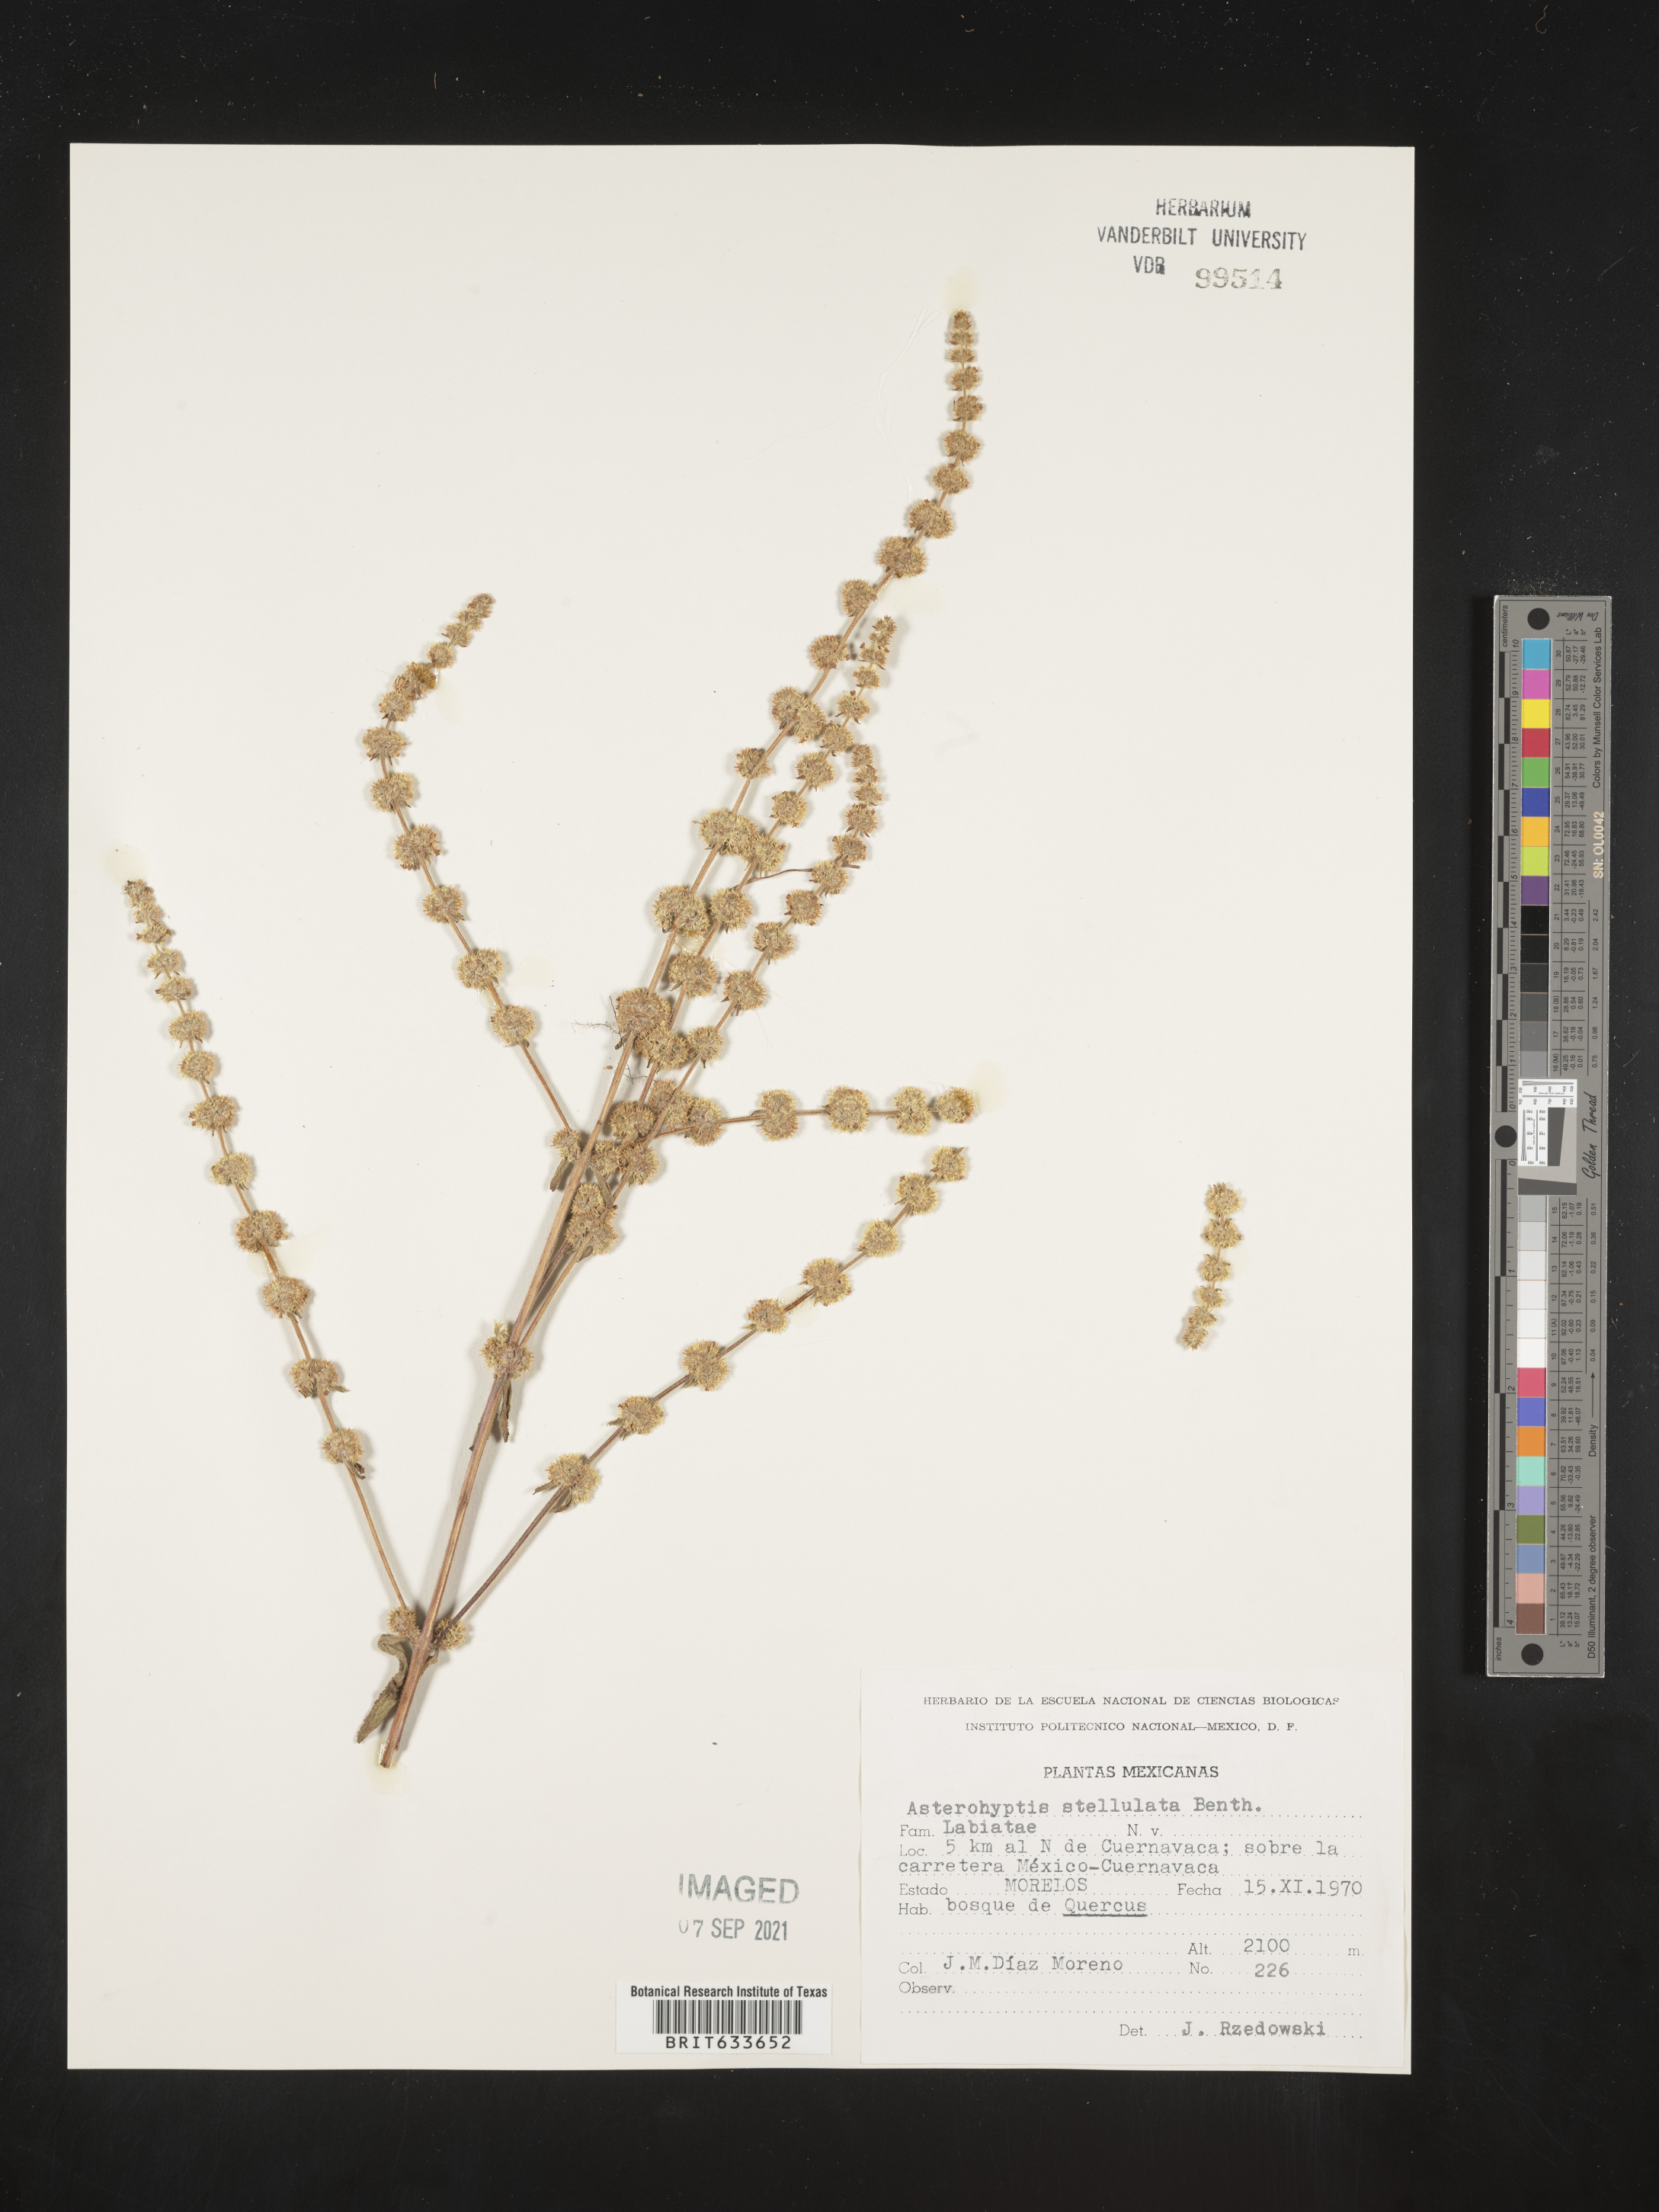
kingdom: Plantae
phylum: Tracheophyta
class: Magnoliopsida
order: Lamiales
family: Lamiaceae
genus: Asterohyptis
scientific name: Asterohyptis
